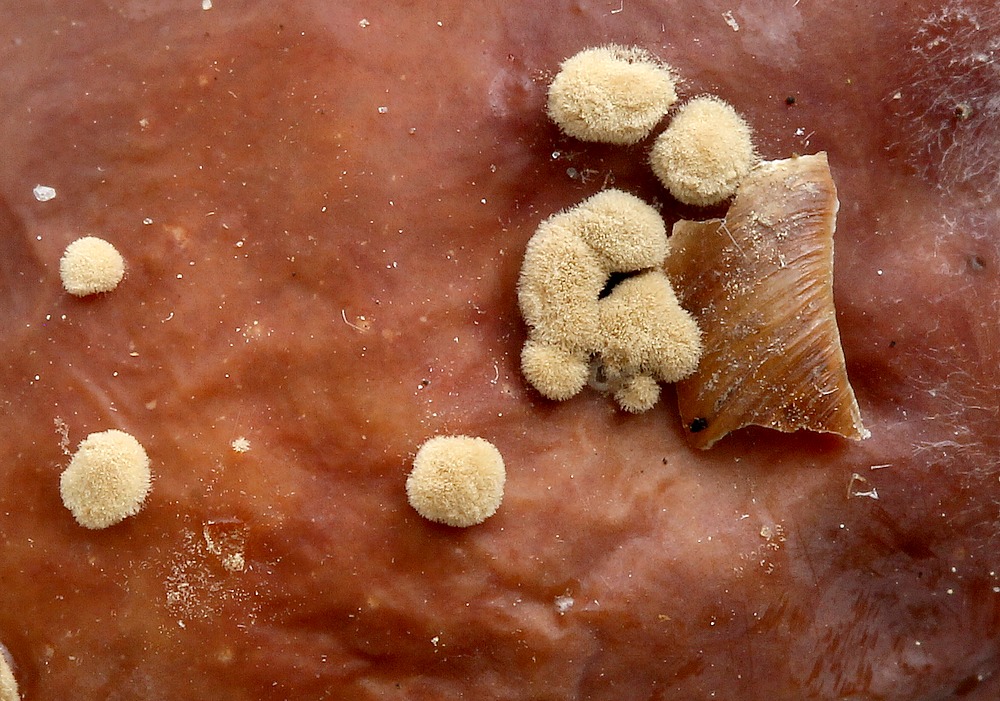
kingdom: Fungi
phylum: Ascomycota
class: Leotiomycetes
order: Helotiales
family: Sclerotiniaceae
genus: Monilinia
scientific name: Monilinia laxa
